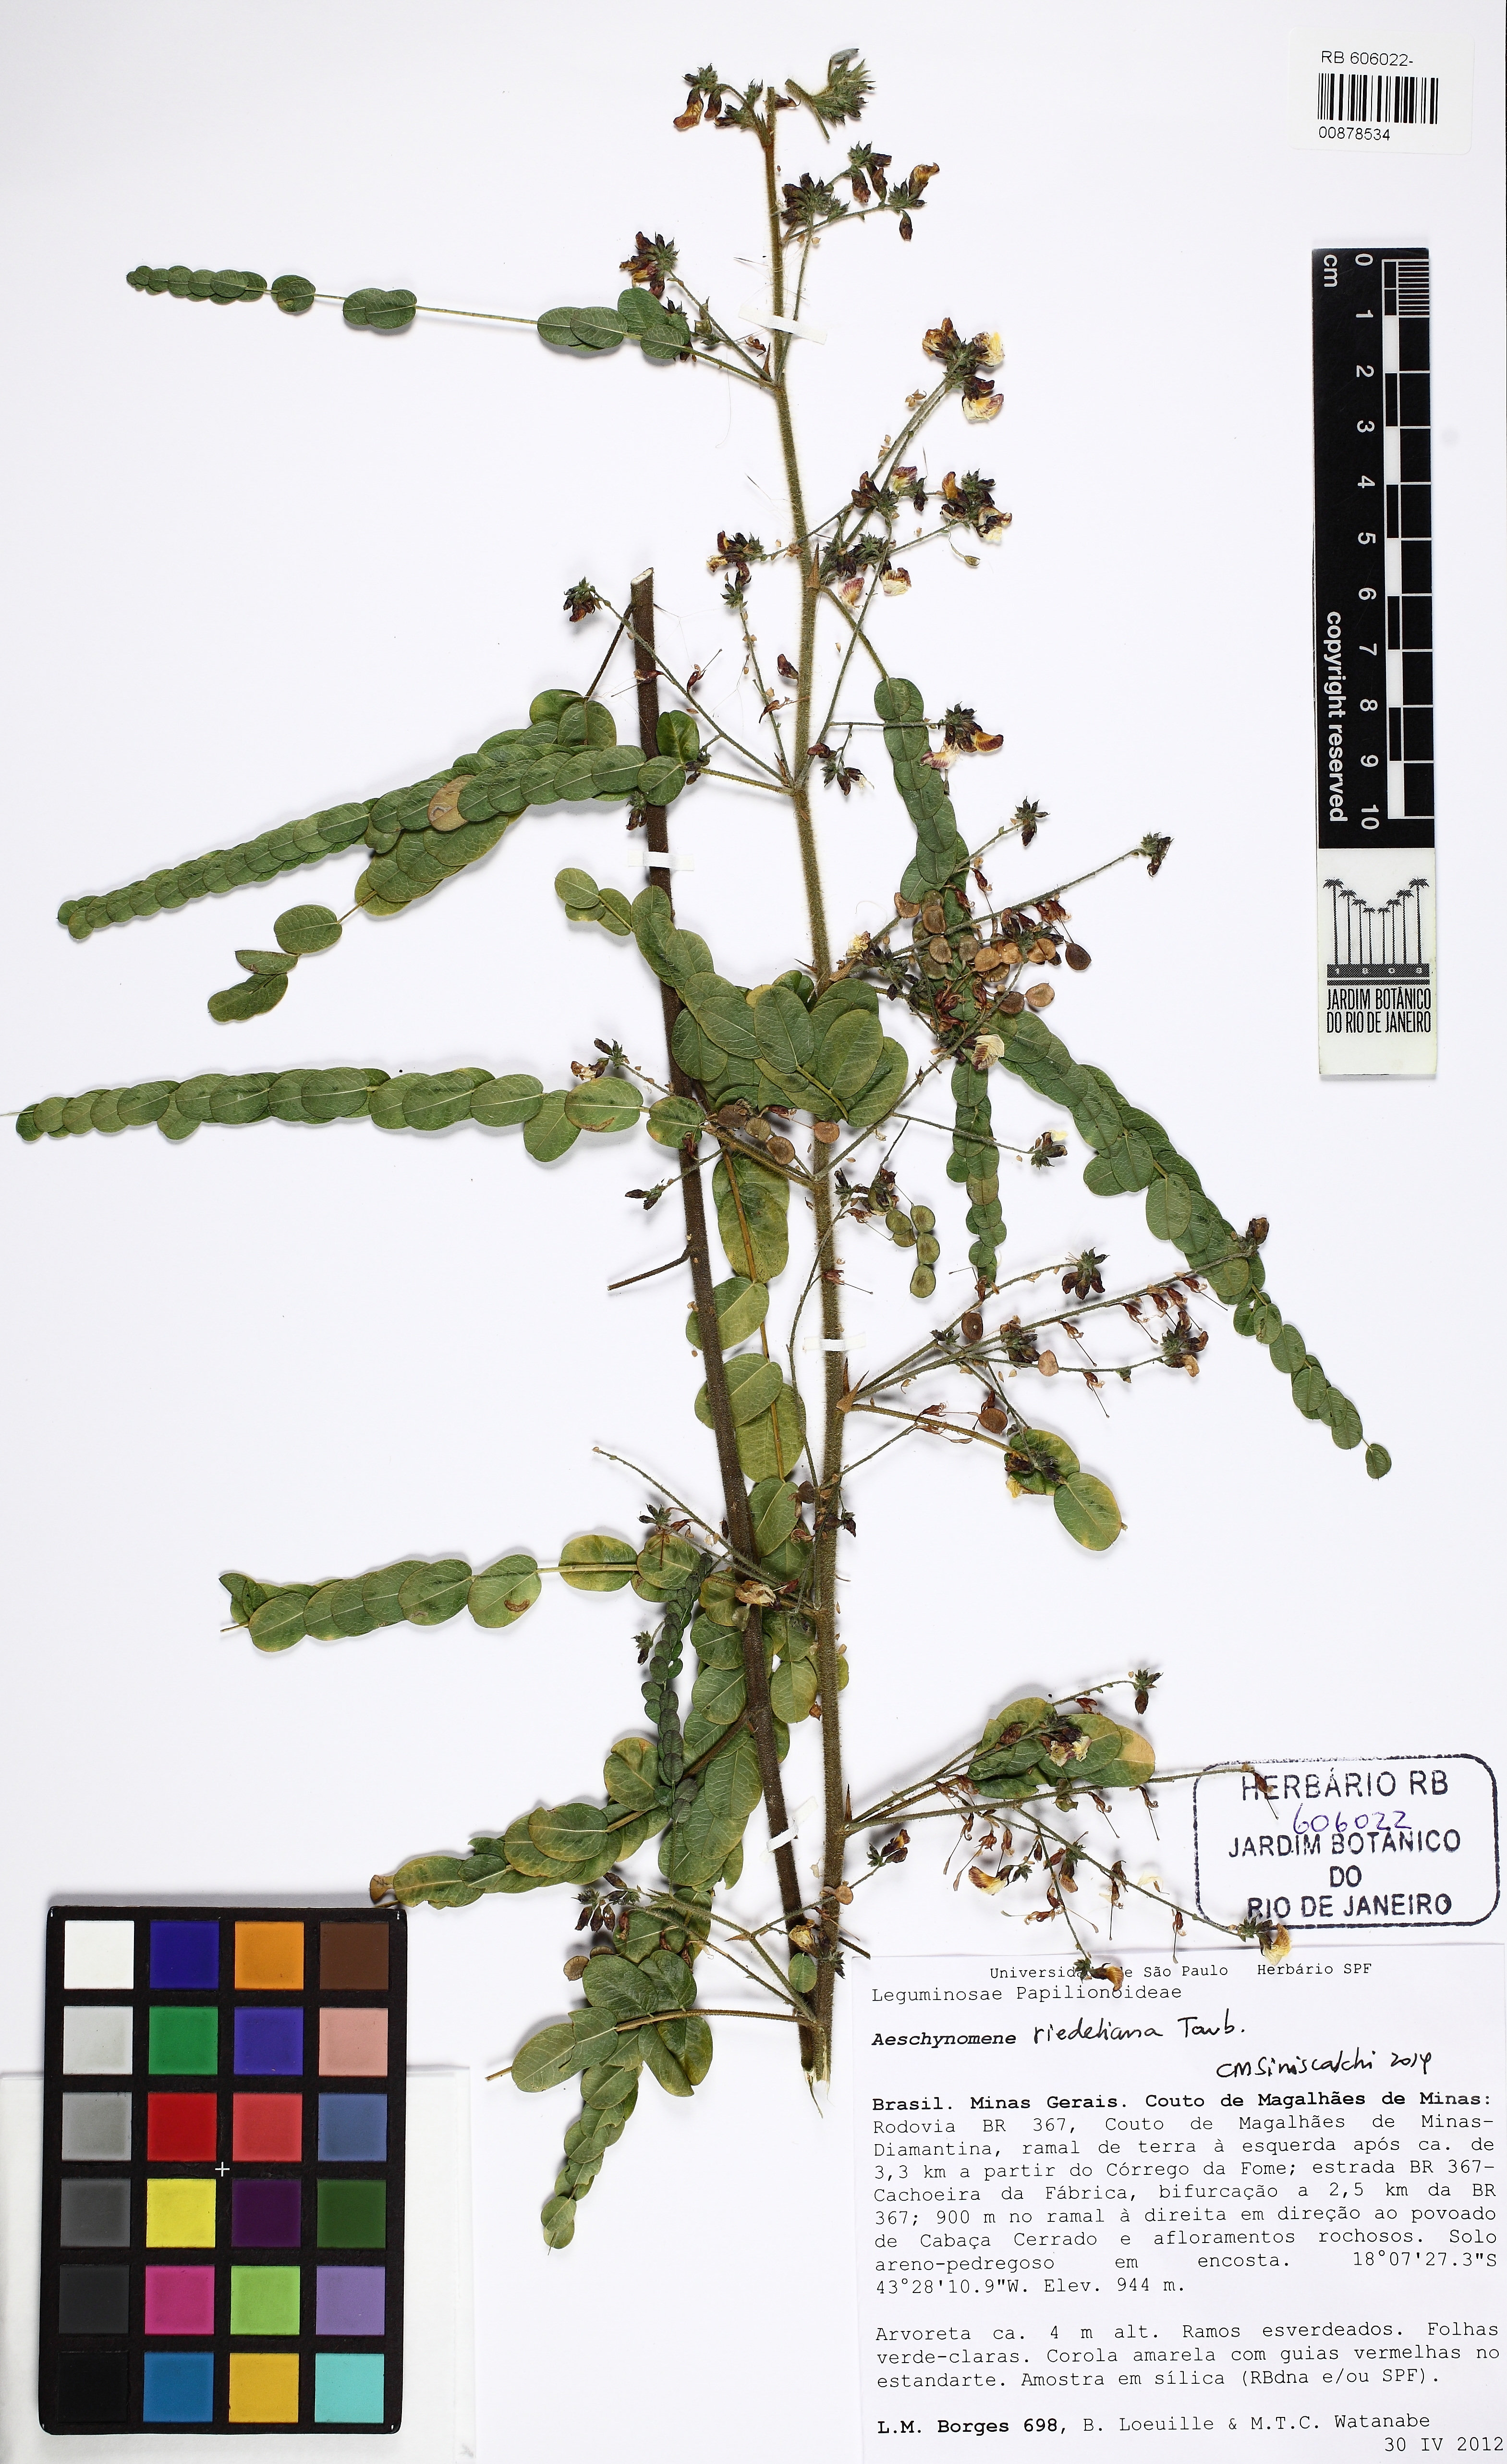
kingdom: Plantae
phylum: Tracheophyta
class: Magnoliopsida
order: Fabales
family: Fabaceae
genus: Ctenodon
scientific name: Ctenodon riedelianus
